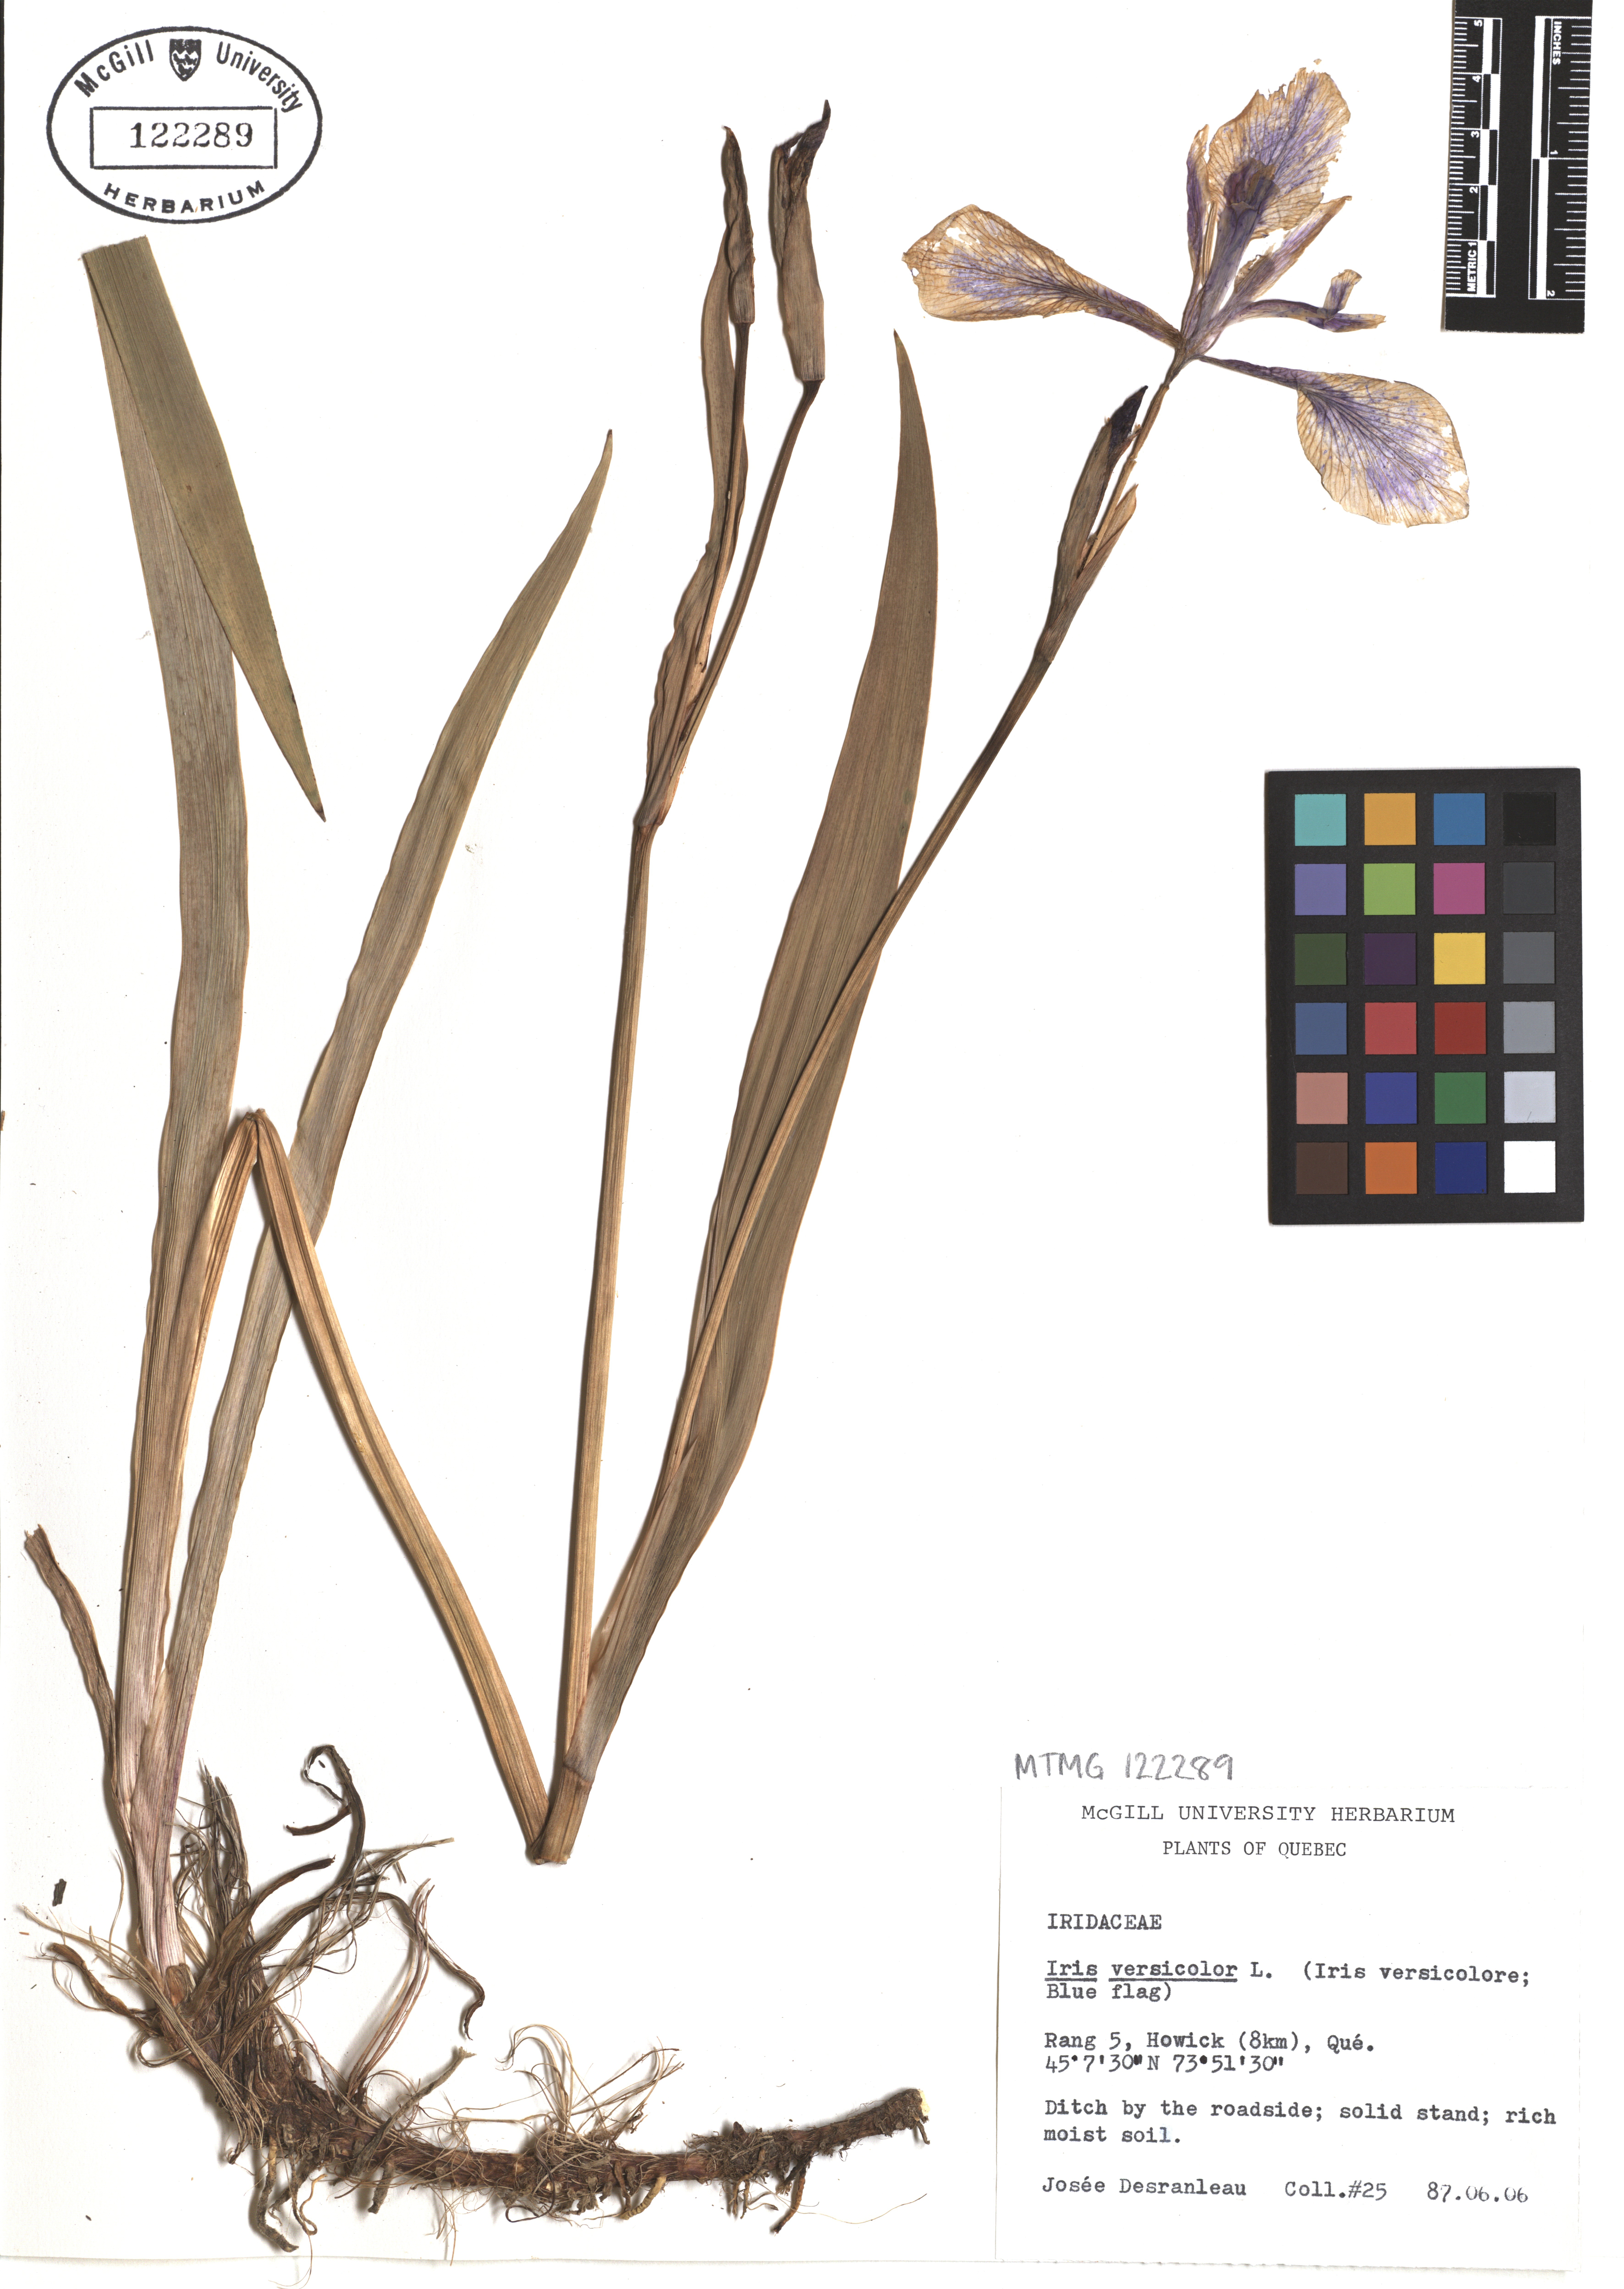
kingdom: Plantae
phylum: Tracheophyta
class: Liliopsida
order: Asparagales
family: Iridaceae
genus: Iris
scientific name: Iris versicolor
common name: Purple iris
